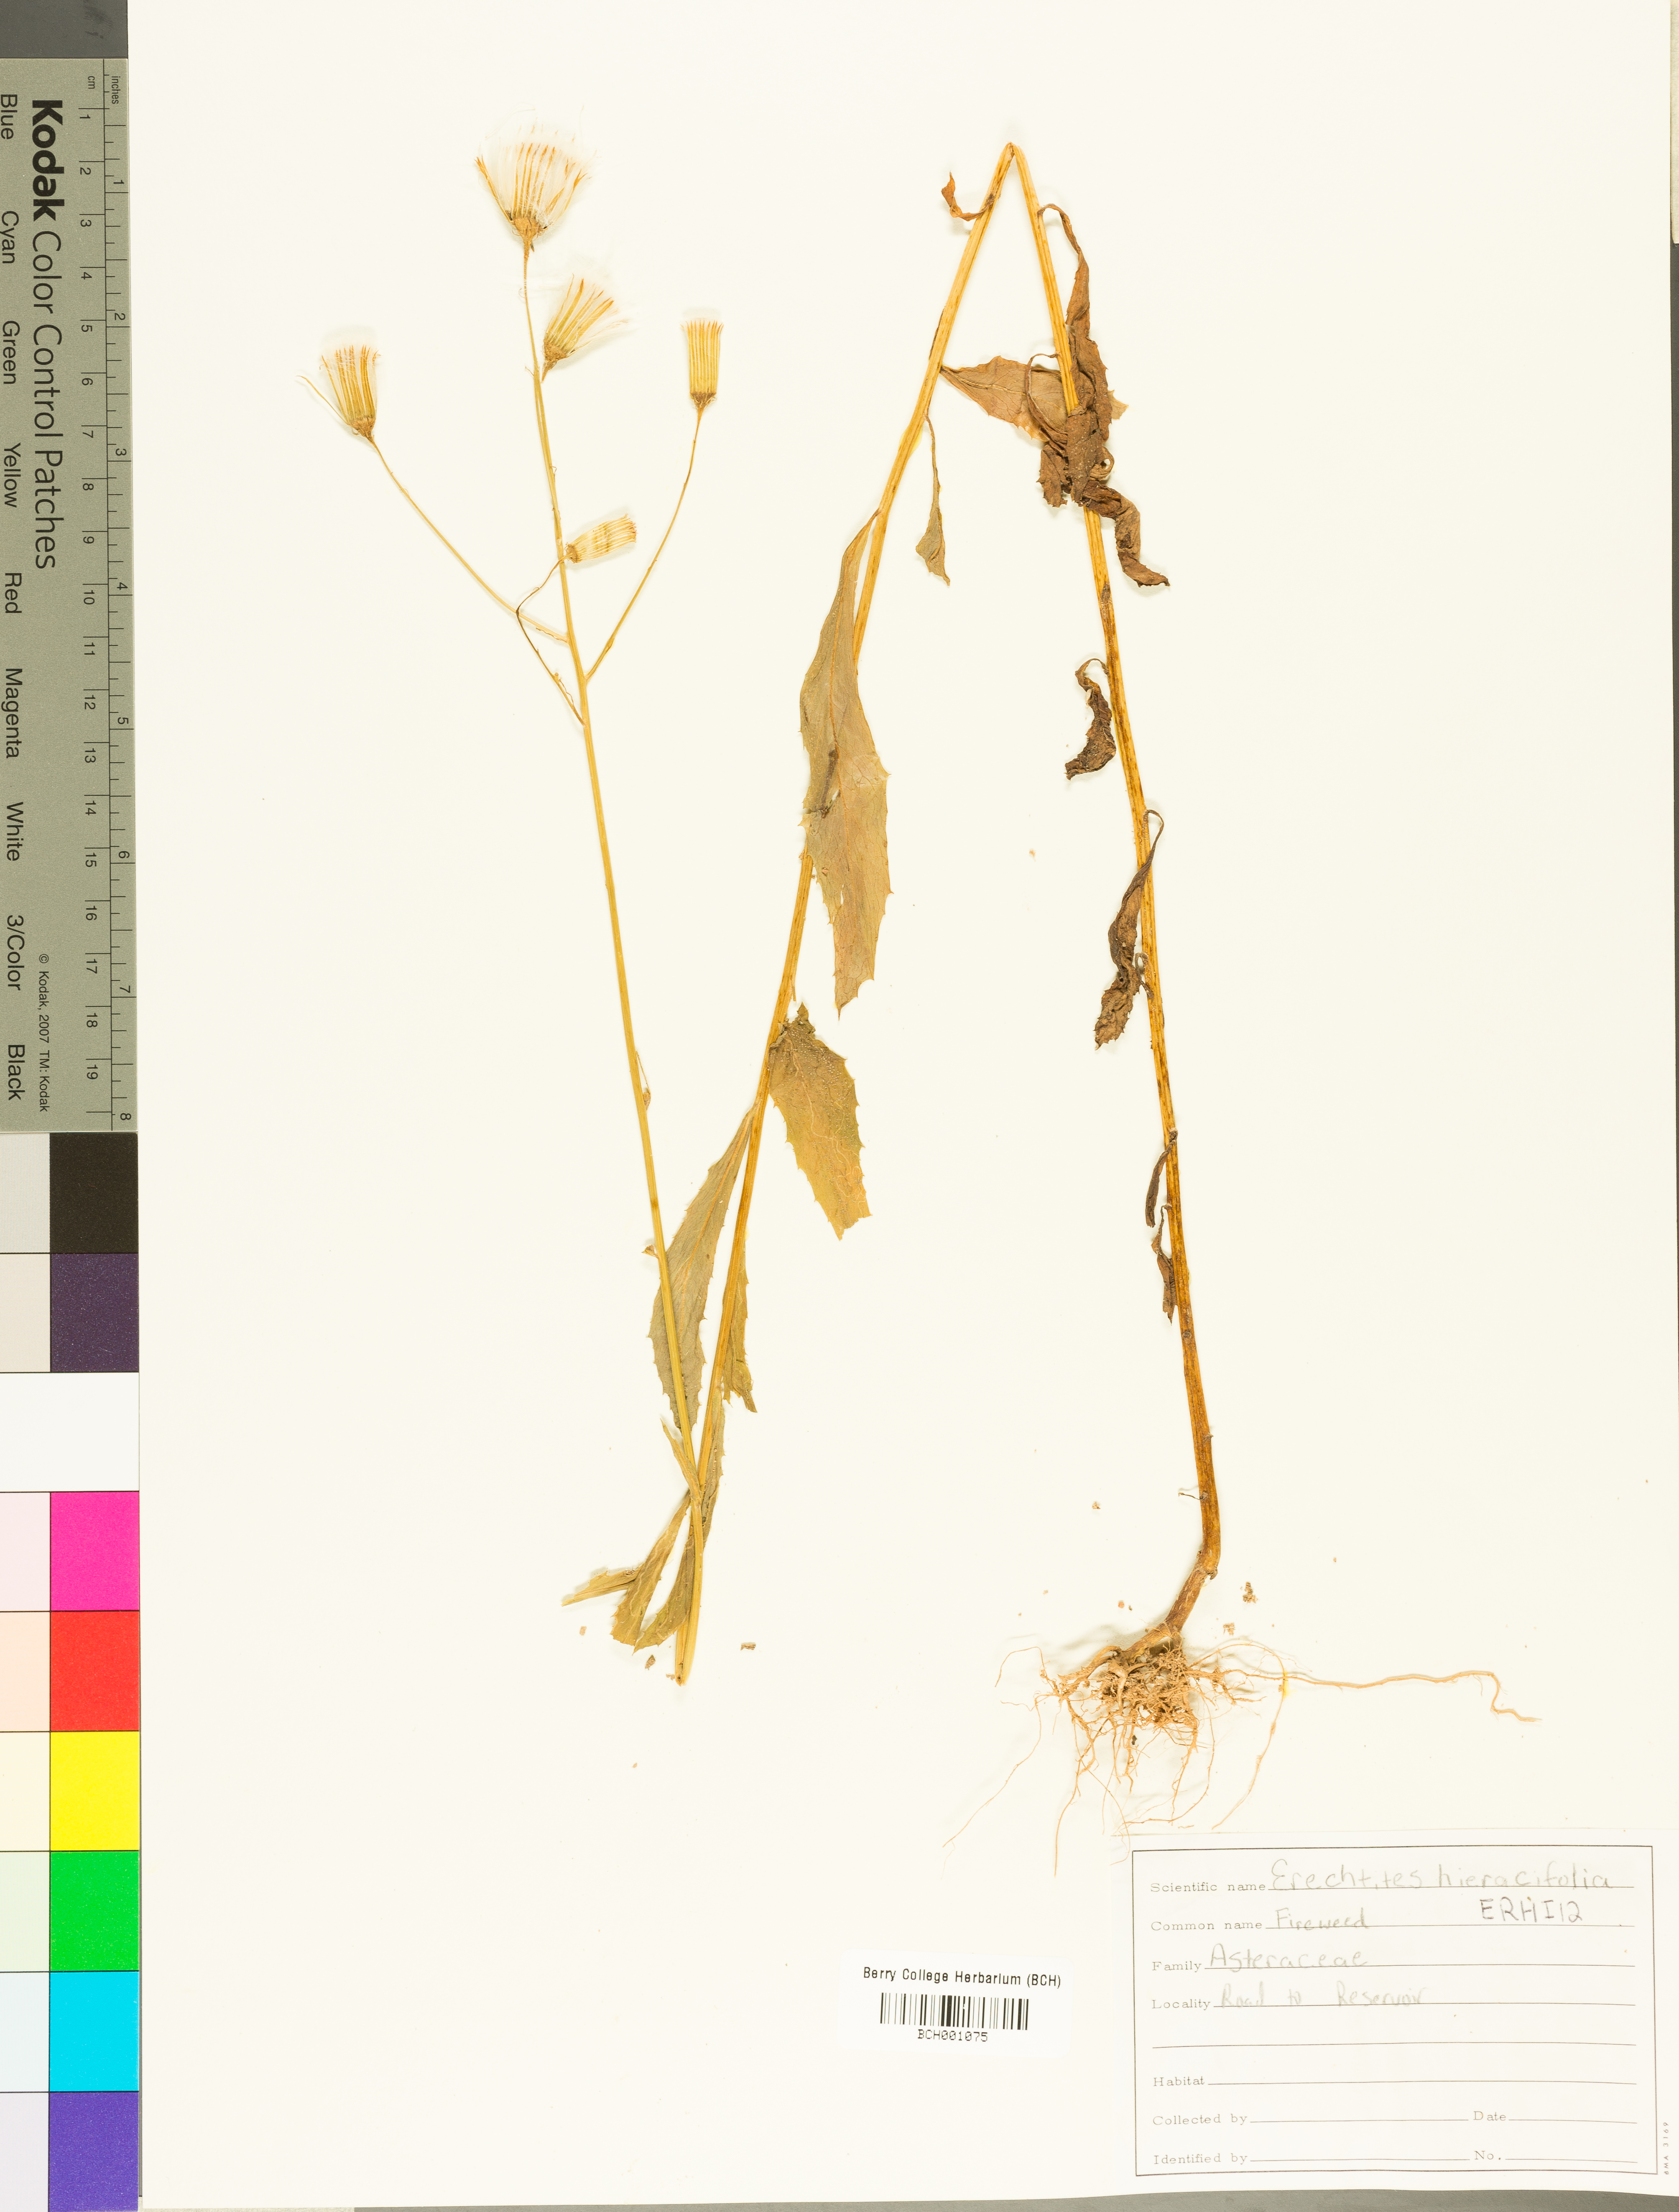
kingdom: Plantae
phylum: Tracheophyta
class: Magnoliopsida
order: Asterales
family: Asteraceae
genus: Erechtites
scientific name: Erechtites hieraciifolius
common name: American burnweed
